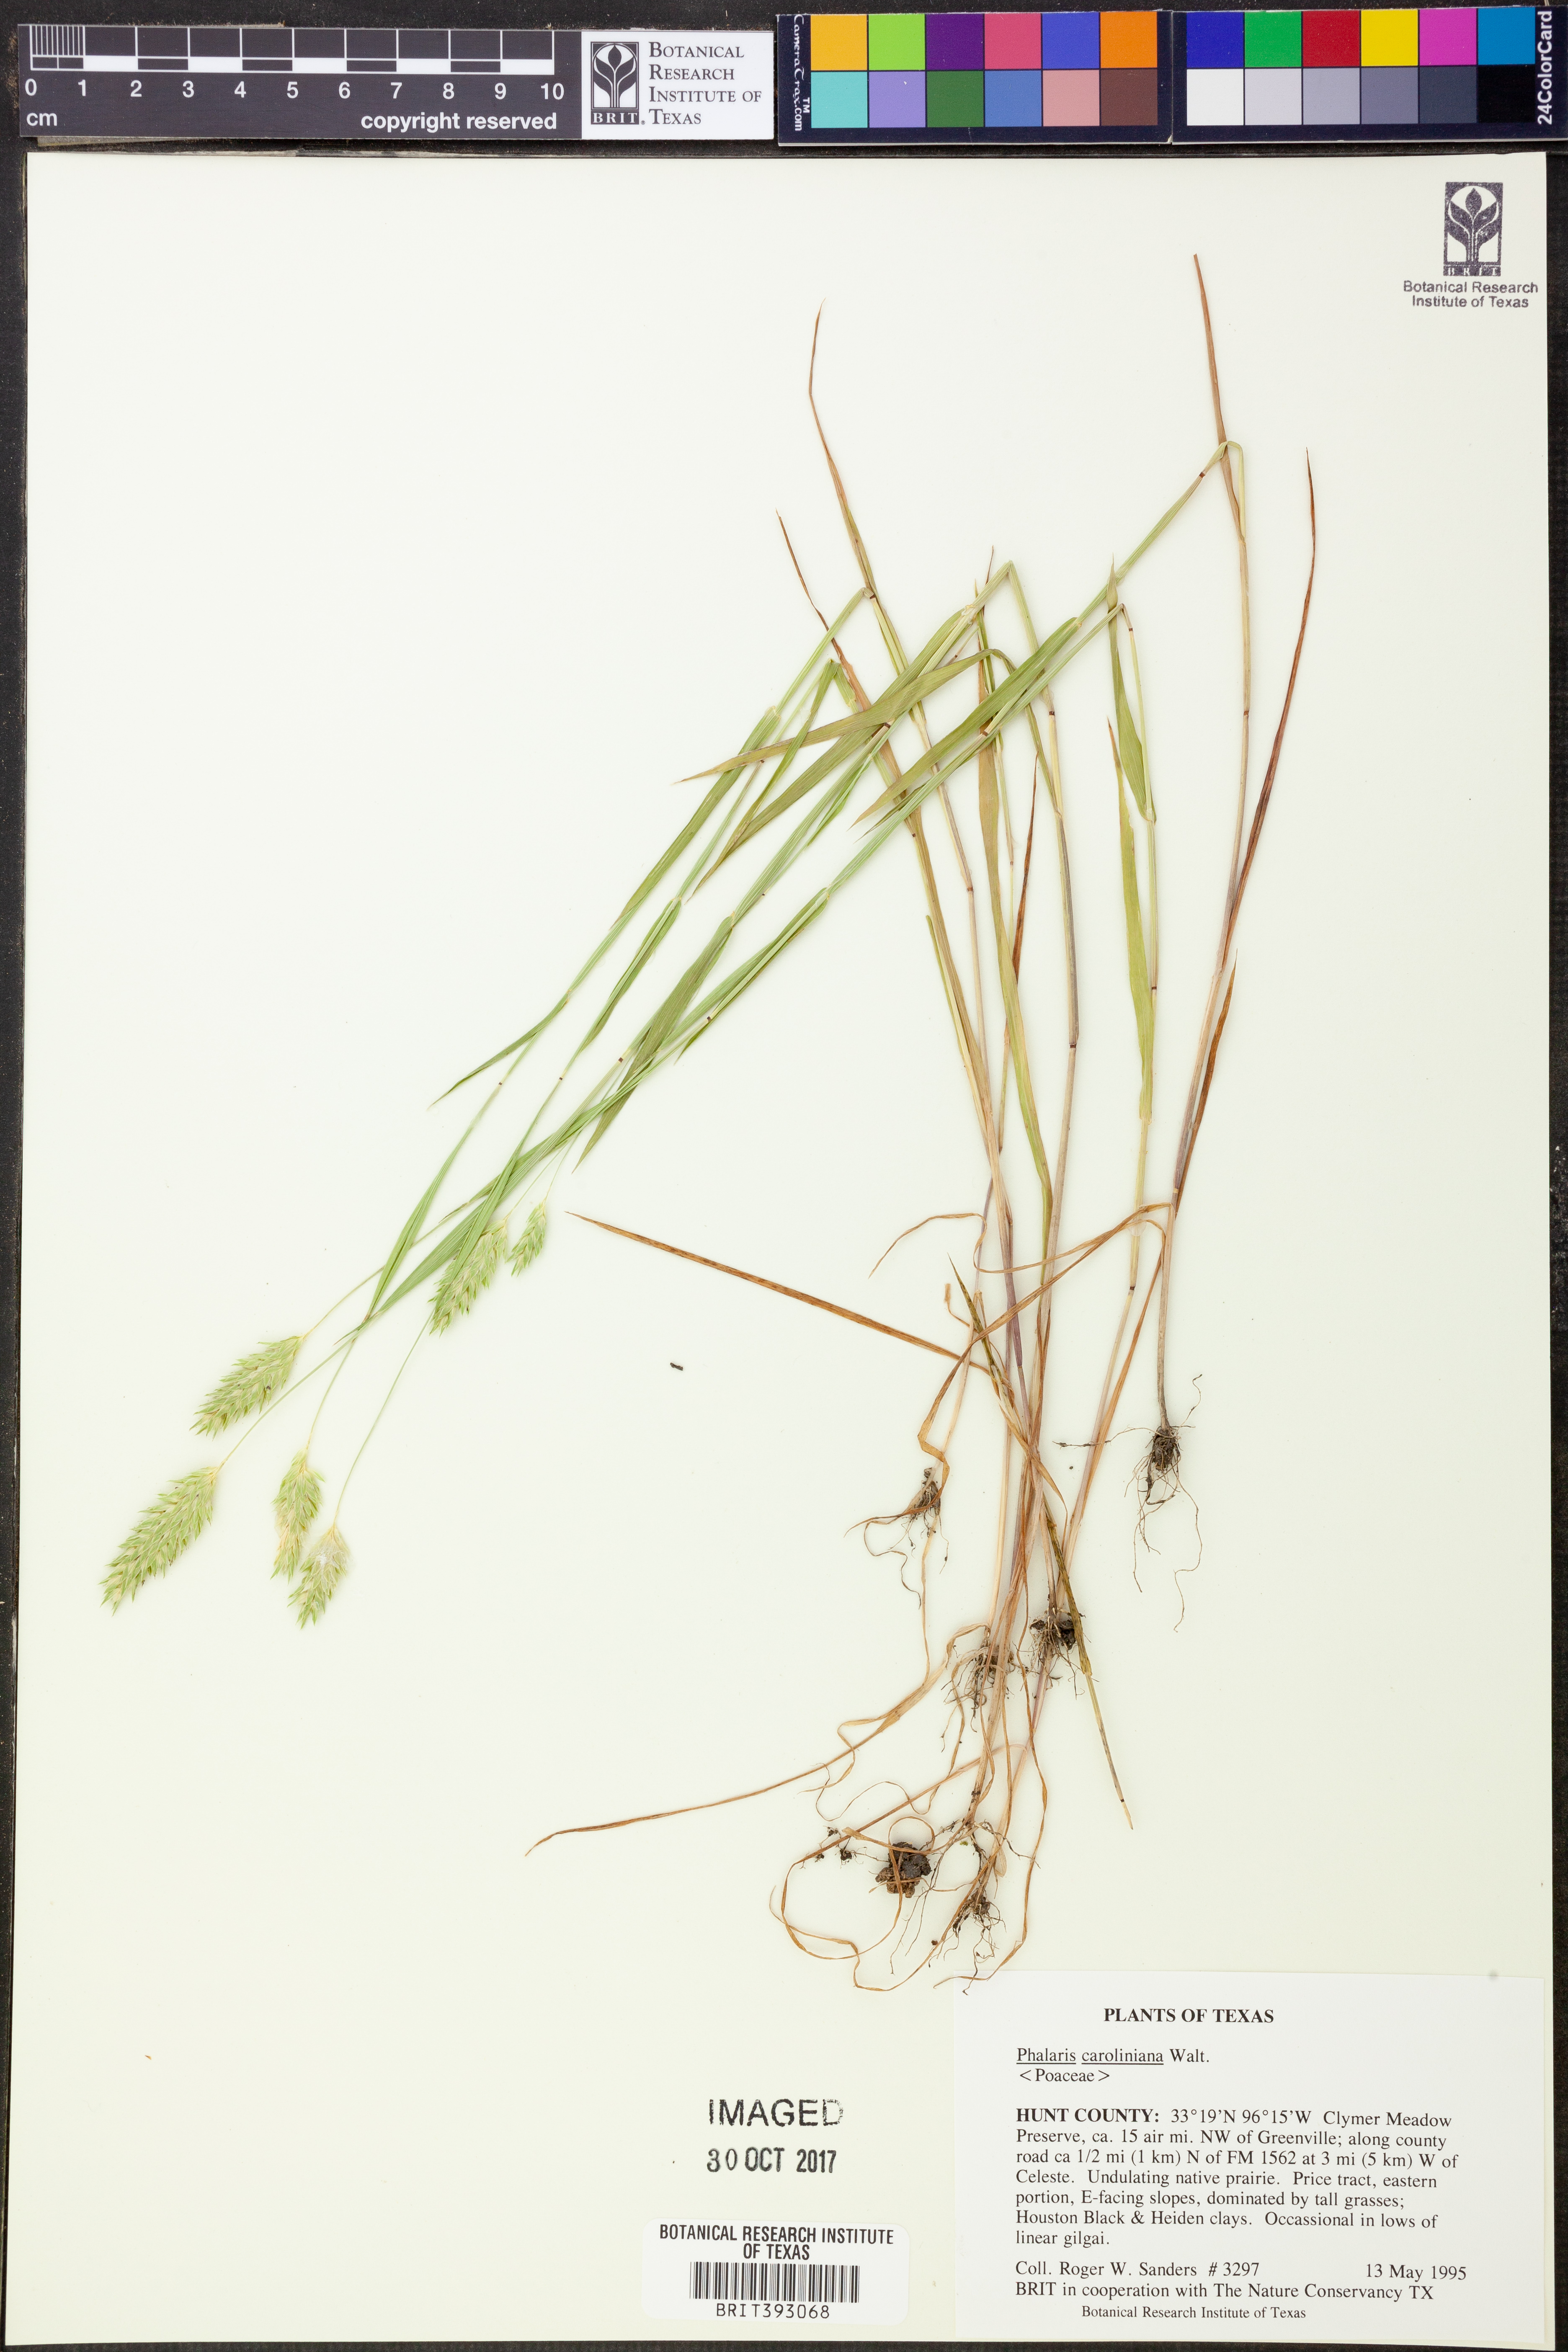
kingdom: Plantae
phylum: Tracheophyta
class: Liliopsida
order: Poales
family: Poaceae
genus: Phalaris
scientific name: Phalaris caroliniana
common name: May grass
